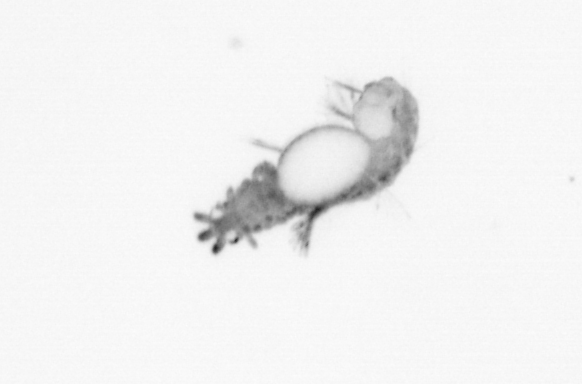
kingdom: Animalia
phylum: Annelida
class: Polychaeta
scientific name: Polychaeta
